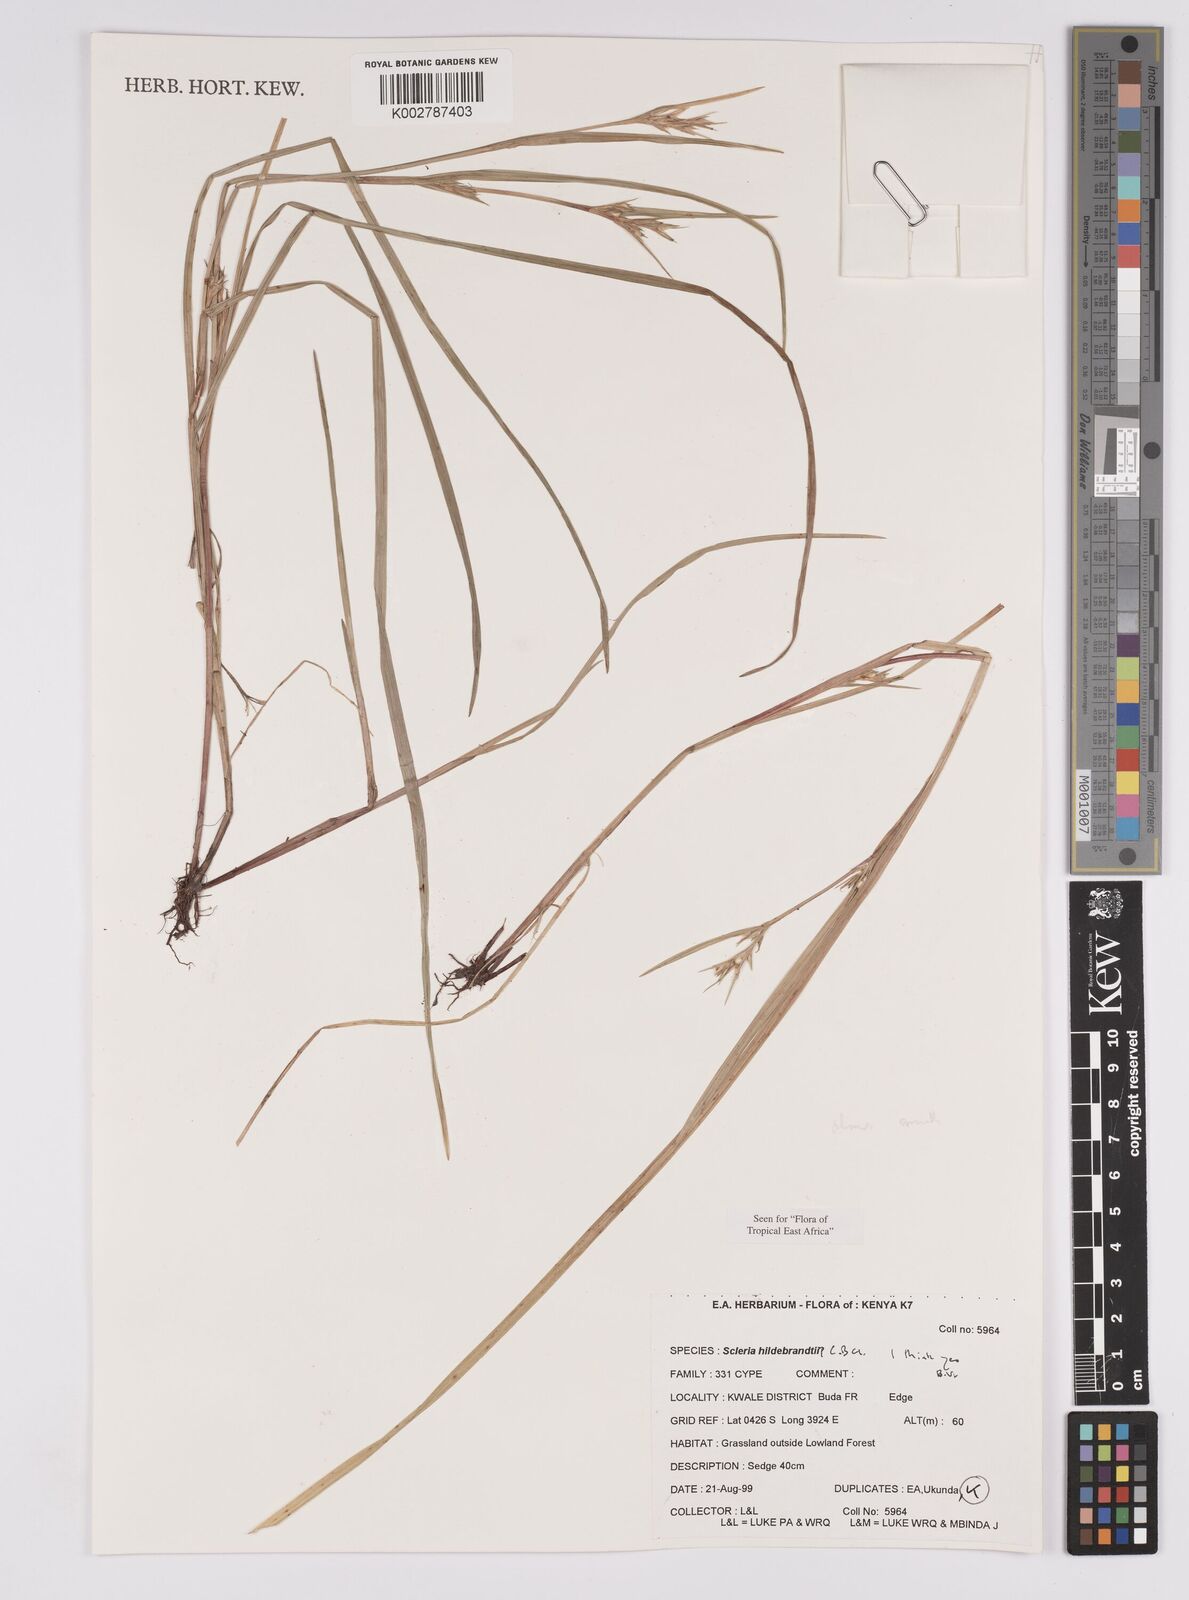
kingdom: Plantae
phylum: Tracheophyta
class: Liliopsida
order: Poales
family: Cyperaceae
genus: Scleria
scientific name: Scleria hildebrandtii
